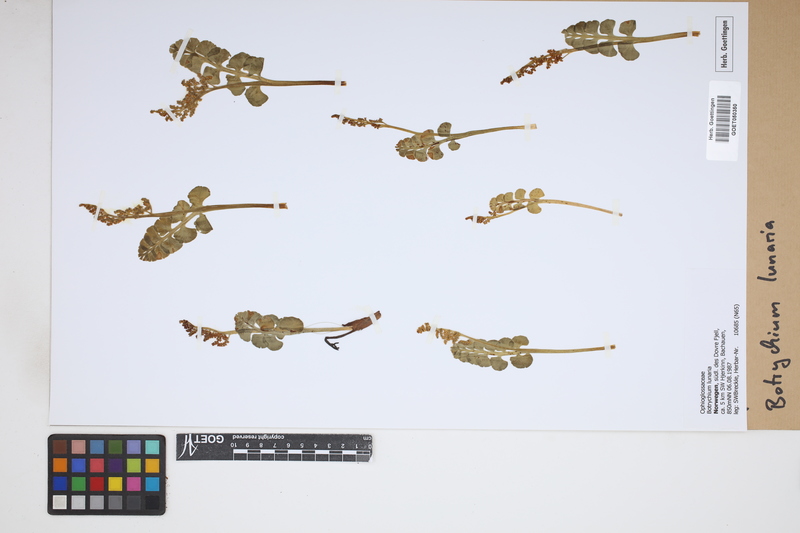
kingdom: Plantae
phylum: Tracheophyta
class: Polypodiopsida
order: Ophioglossales
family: Ophioglossaceae
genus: Botrychium
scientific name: Botrychium lunaria
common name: Moonwort
